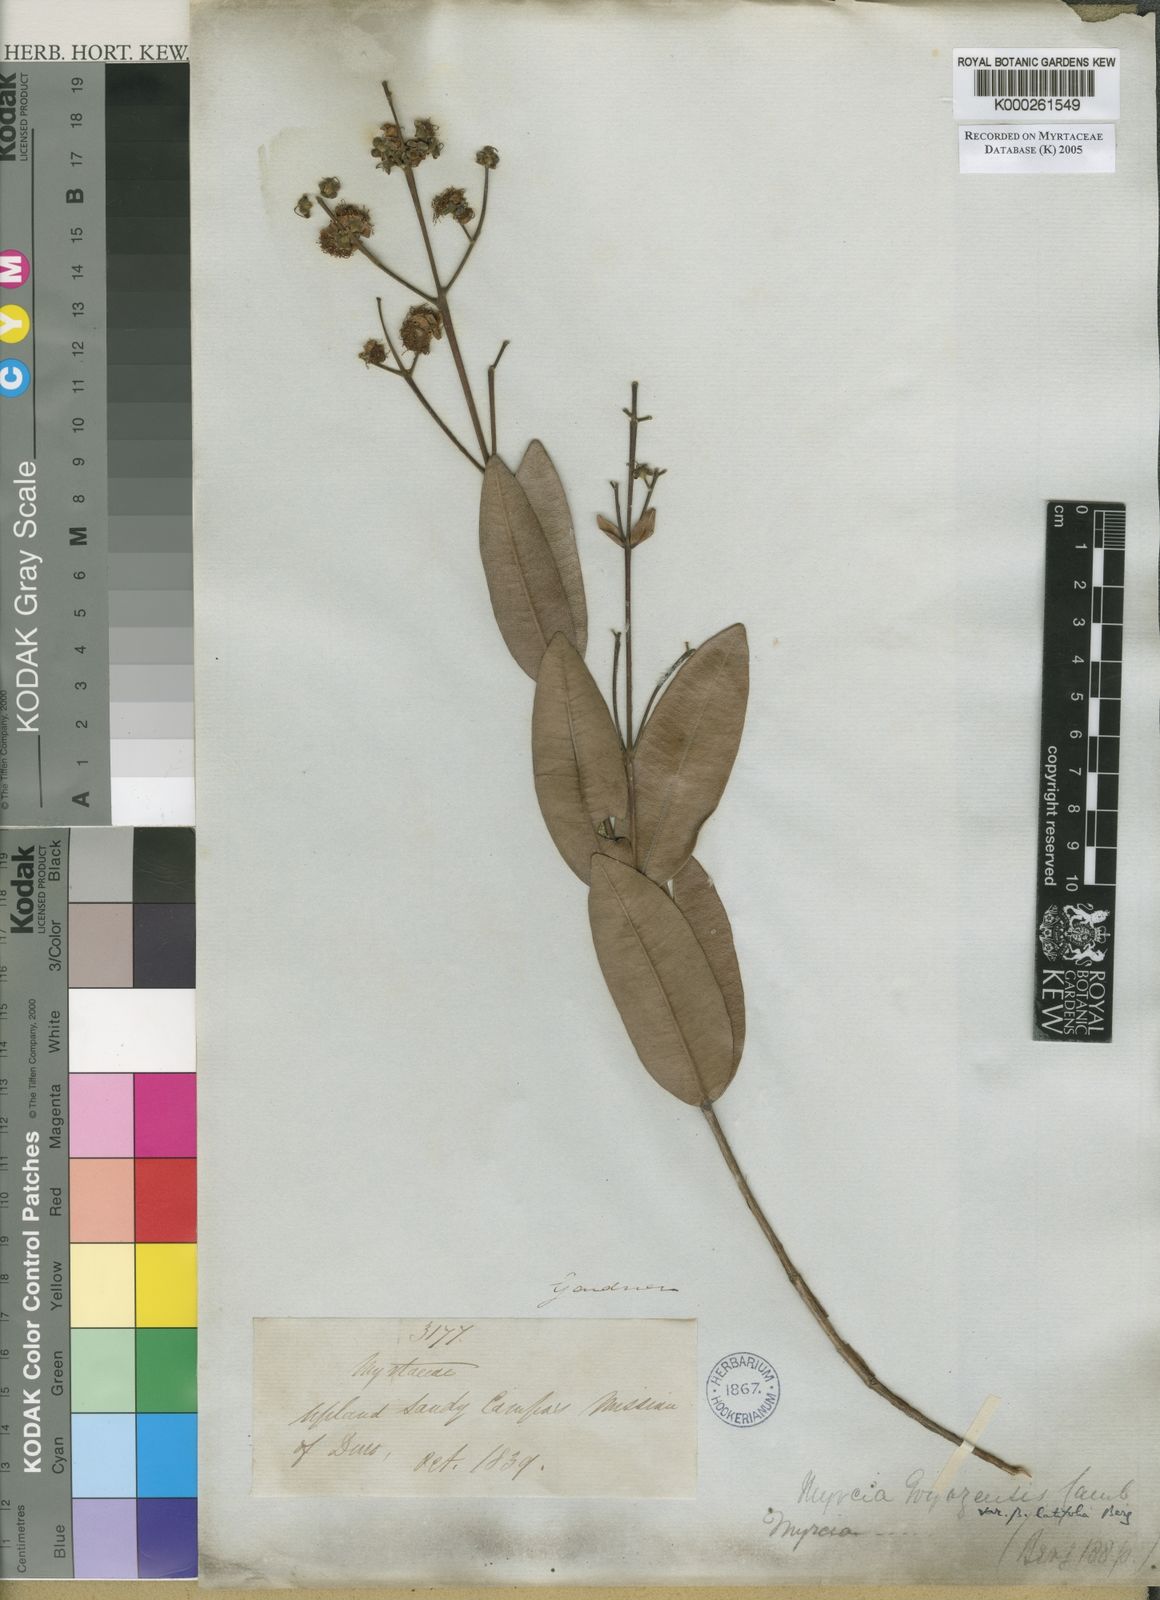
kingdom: Plantae
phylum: Tracheophyta
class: Magnoliopsida
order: Myrtales
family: Myrtaceae
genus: Myrcia
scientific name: Myrcia goyazensis
